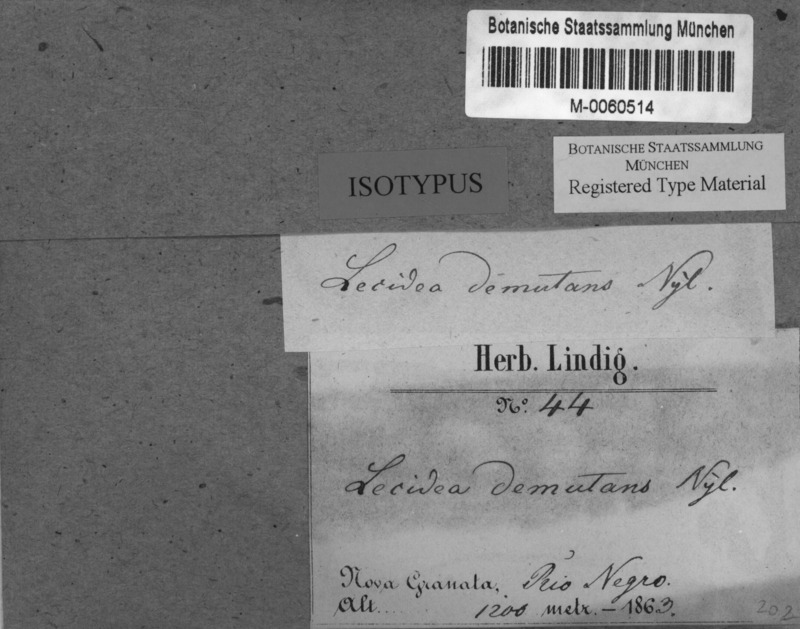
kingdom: Fungi
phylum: Ascomycota
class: Lecanoromycetes
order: Lecanorales
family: Malmideaceae
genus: Malmidea
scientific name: Malmidea demutans
